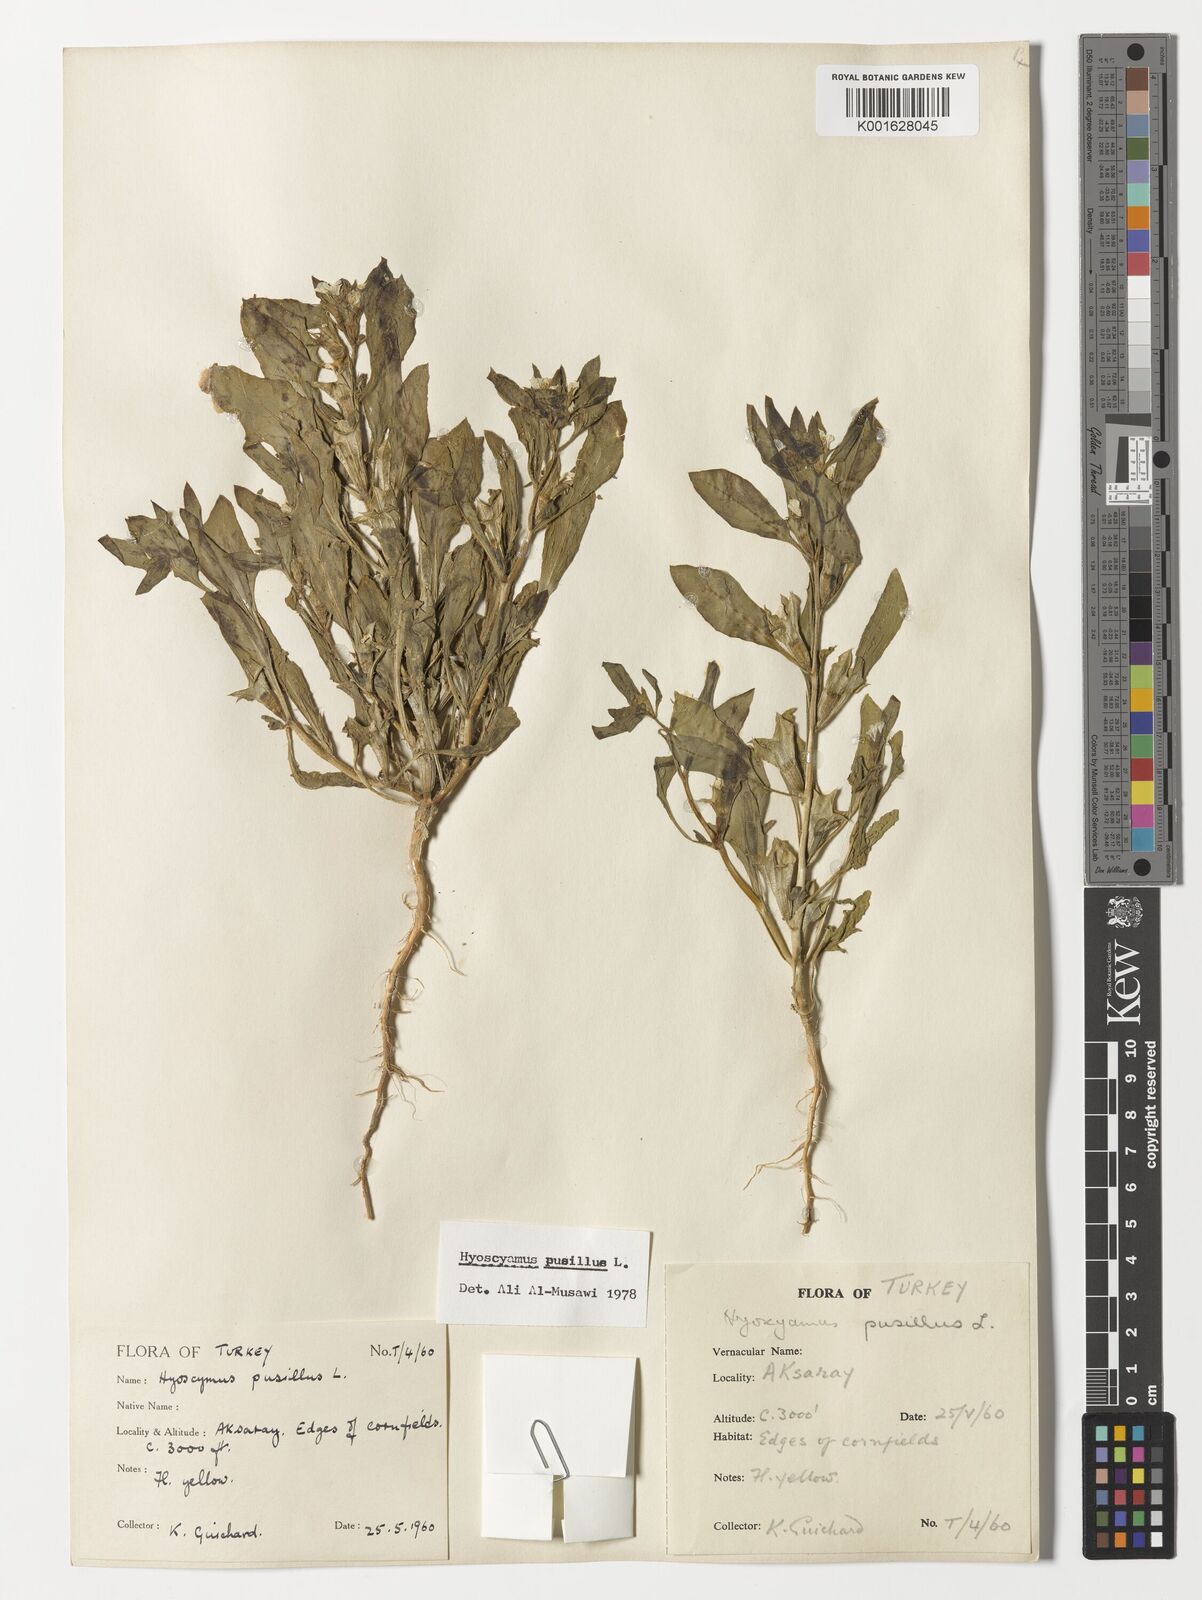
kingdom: Plantae
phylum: Tracheophyta
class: Magnoliopsida
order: Solanales
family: Solanaceae
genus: Hyoscyamus
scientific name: Hyoscyamus pusillus
